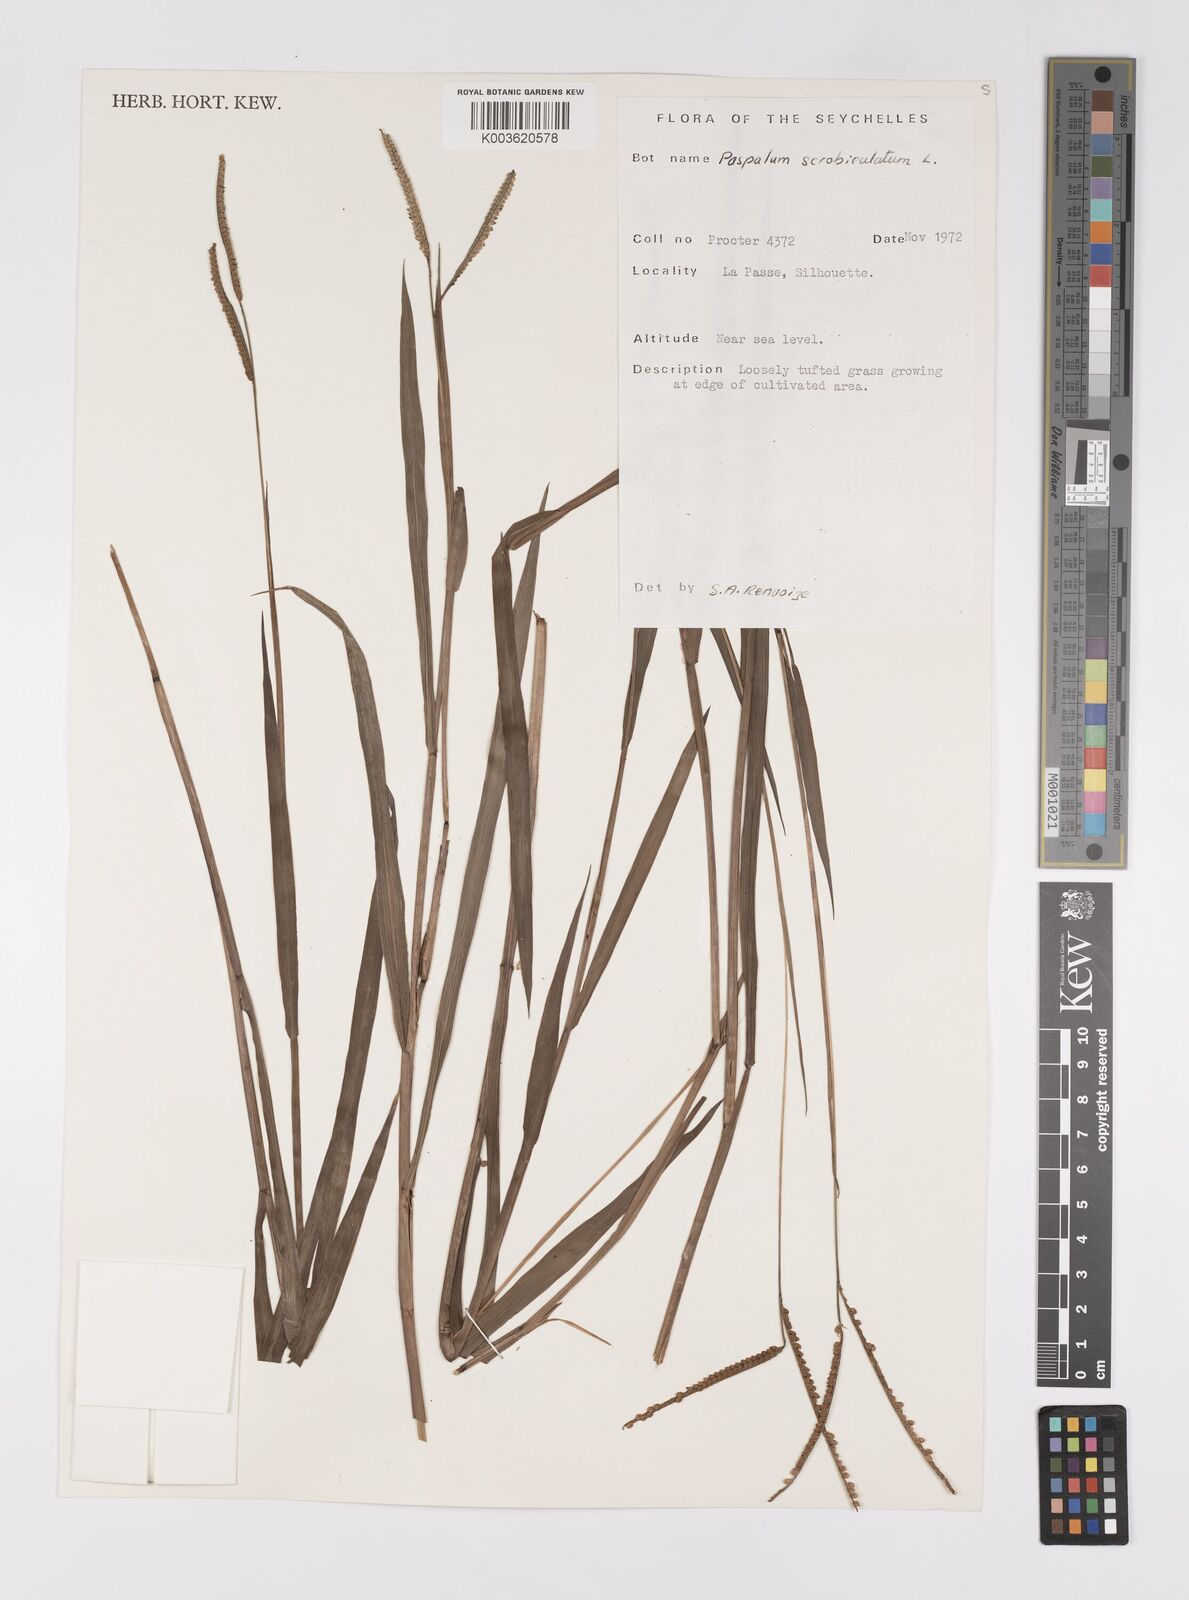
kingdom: Plantae
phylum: Tracheophyta
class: Liliopsida
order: Poales
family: Poaceae
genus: Paspalum
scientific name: Paspalum scrobiculatum
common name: Kodo millet
